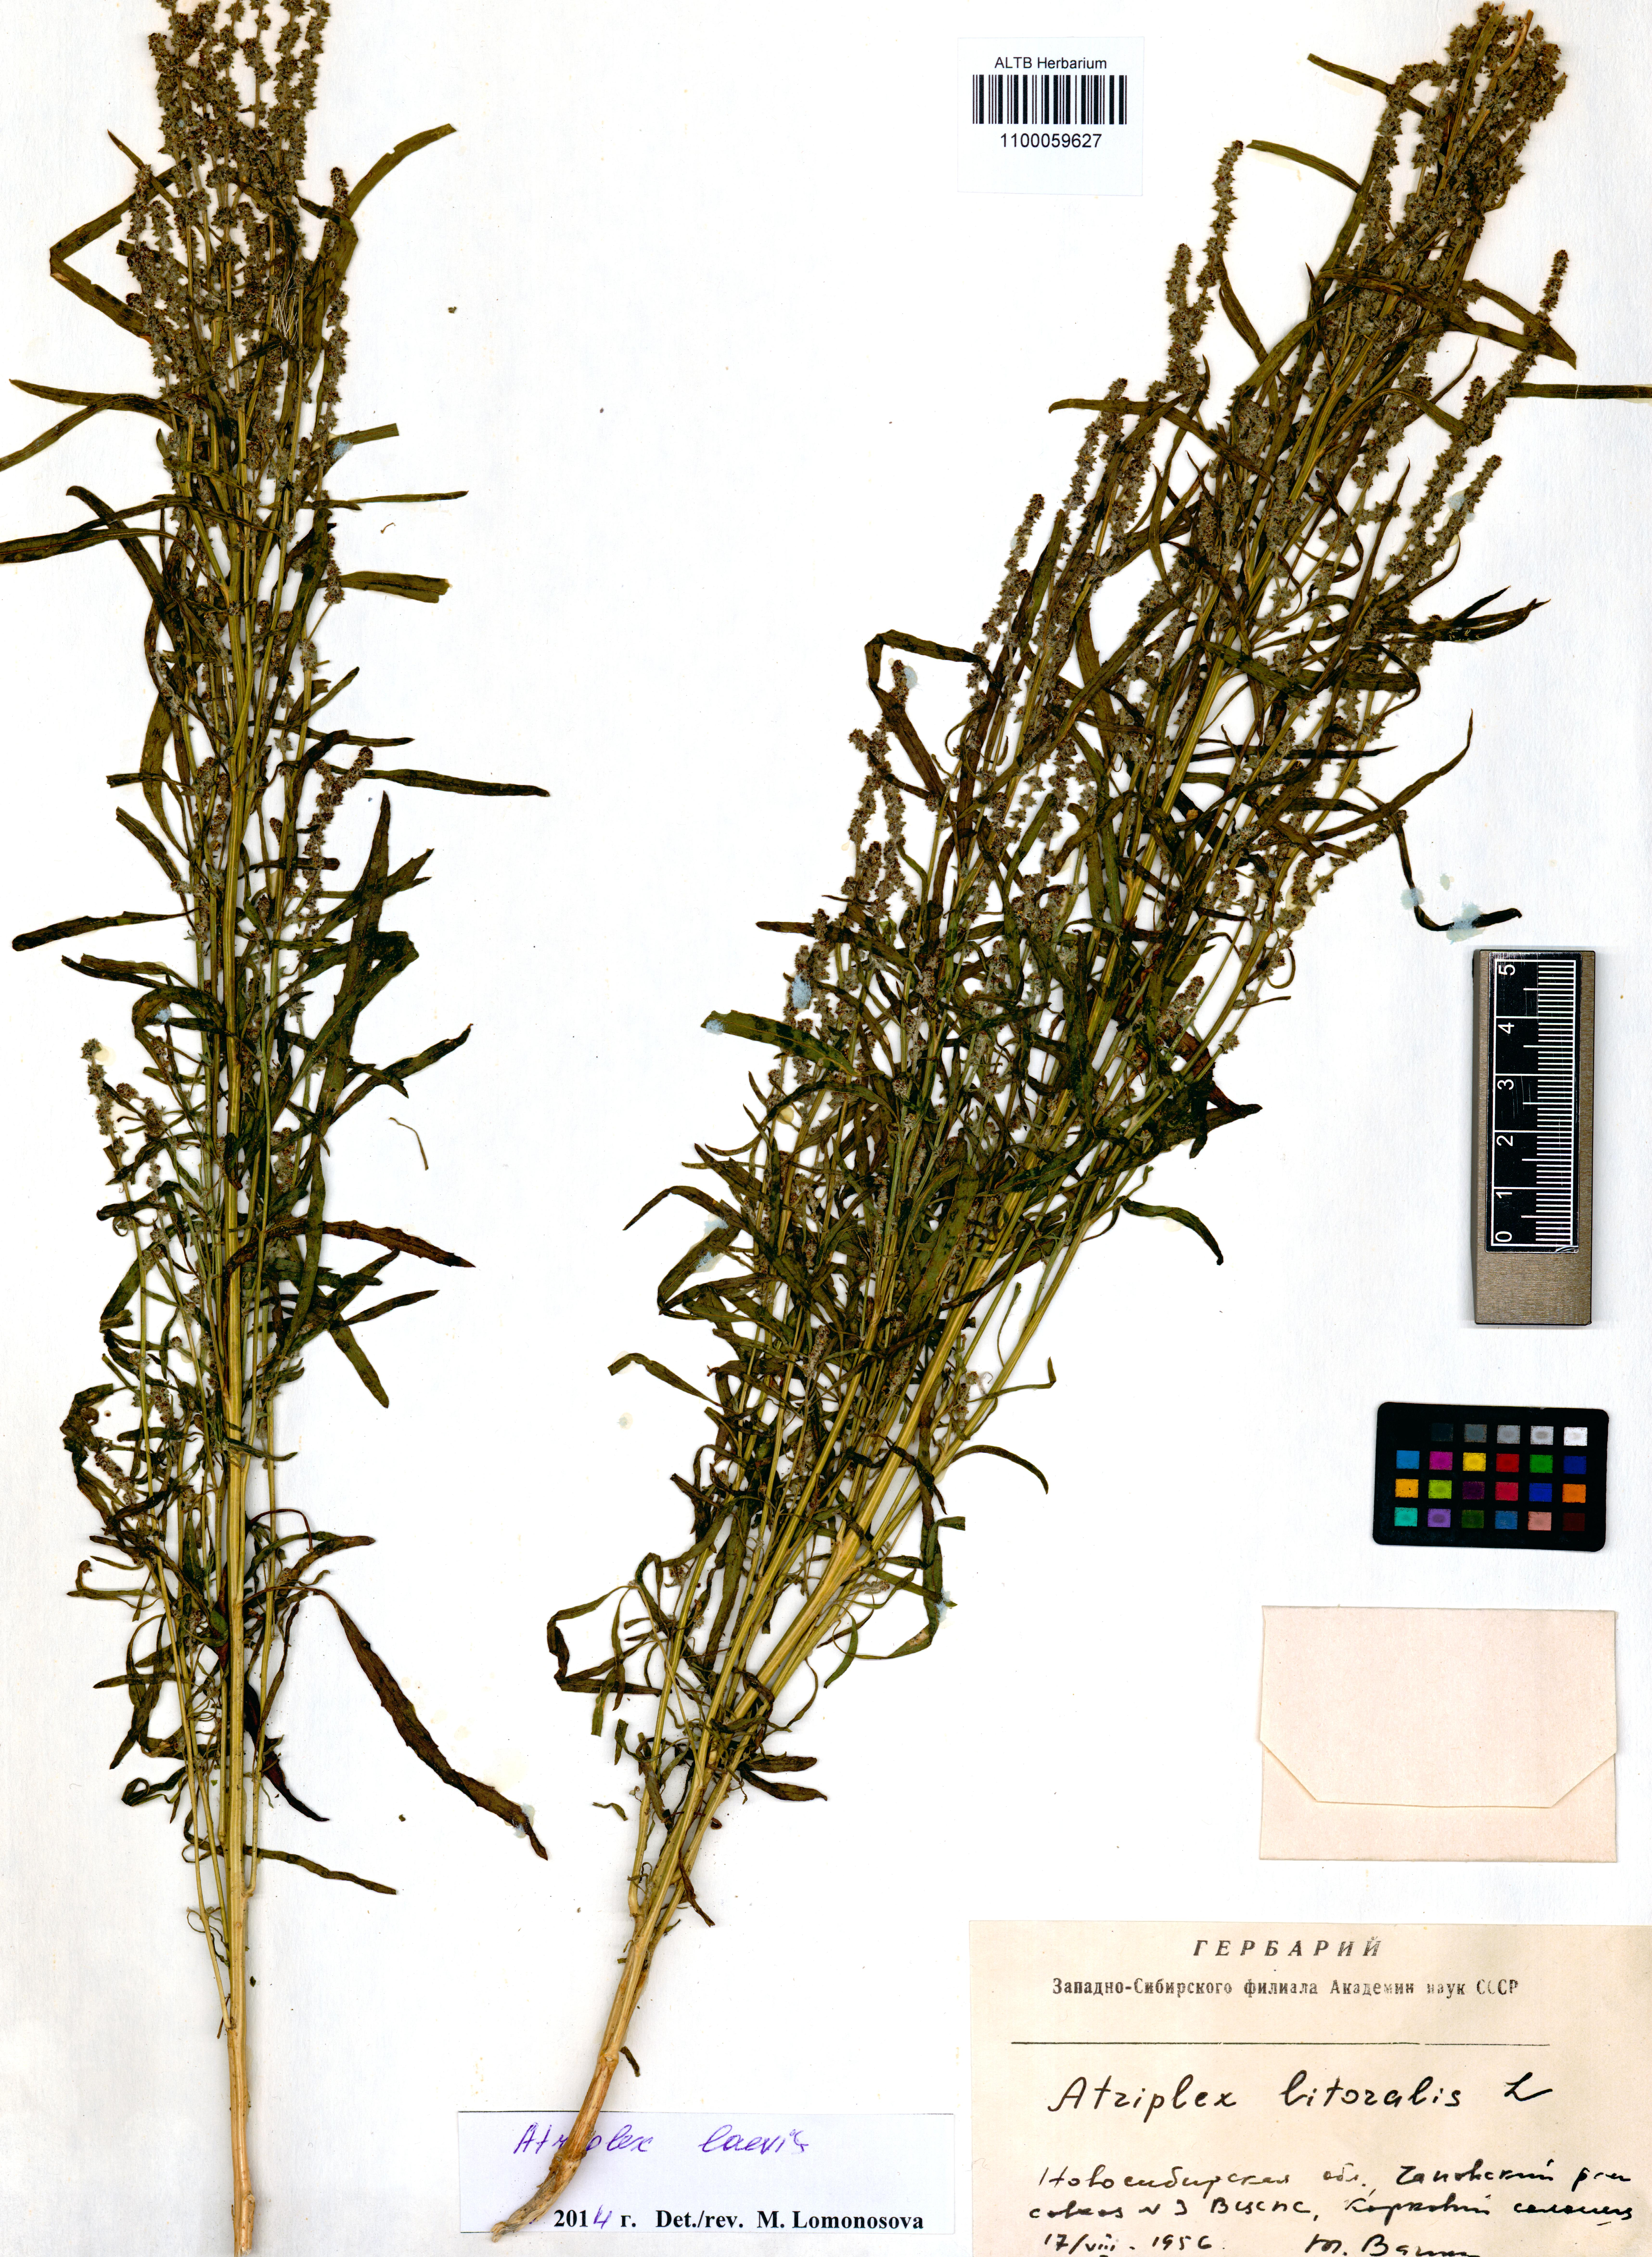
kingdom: Plantae
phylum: Tracheophyta
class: Magnoliopsida
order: Caryophyllales
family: Amaranthaceae
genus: Atriplex
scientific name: Atriplex laevis
